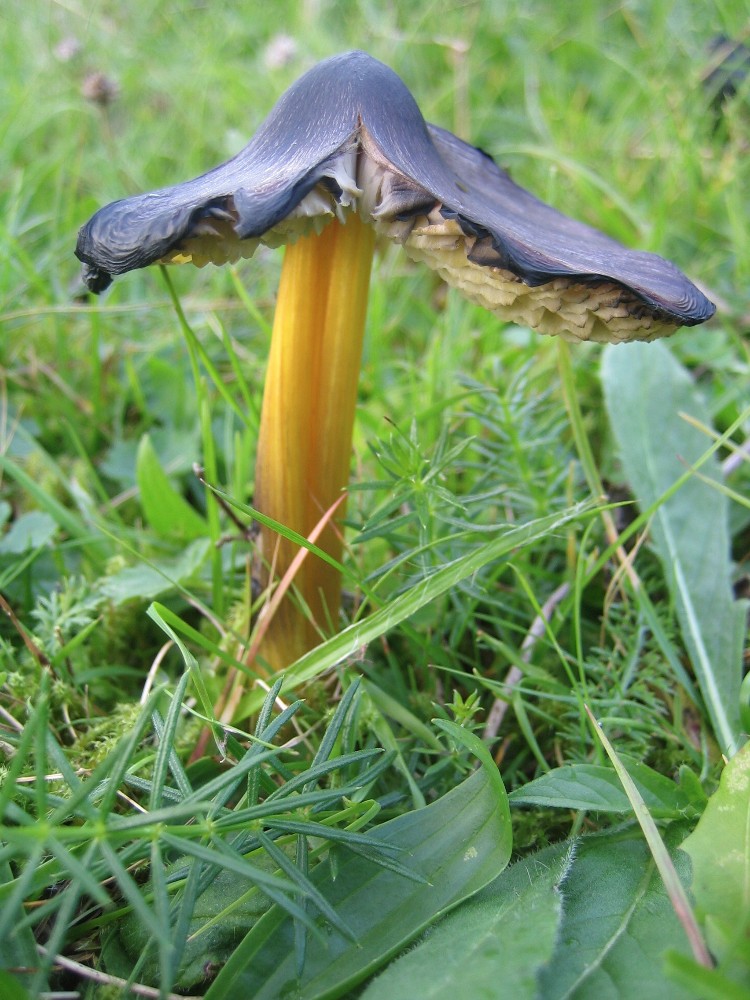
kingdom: Fungi
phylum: Basidiomycota
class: Agaricomycetes
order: Agaricales
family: Hygrophoraceae
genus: Hygrocybe
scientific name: Hygrocybe conica
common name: kegle-vokshat
